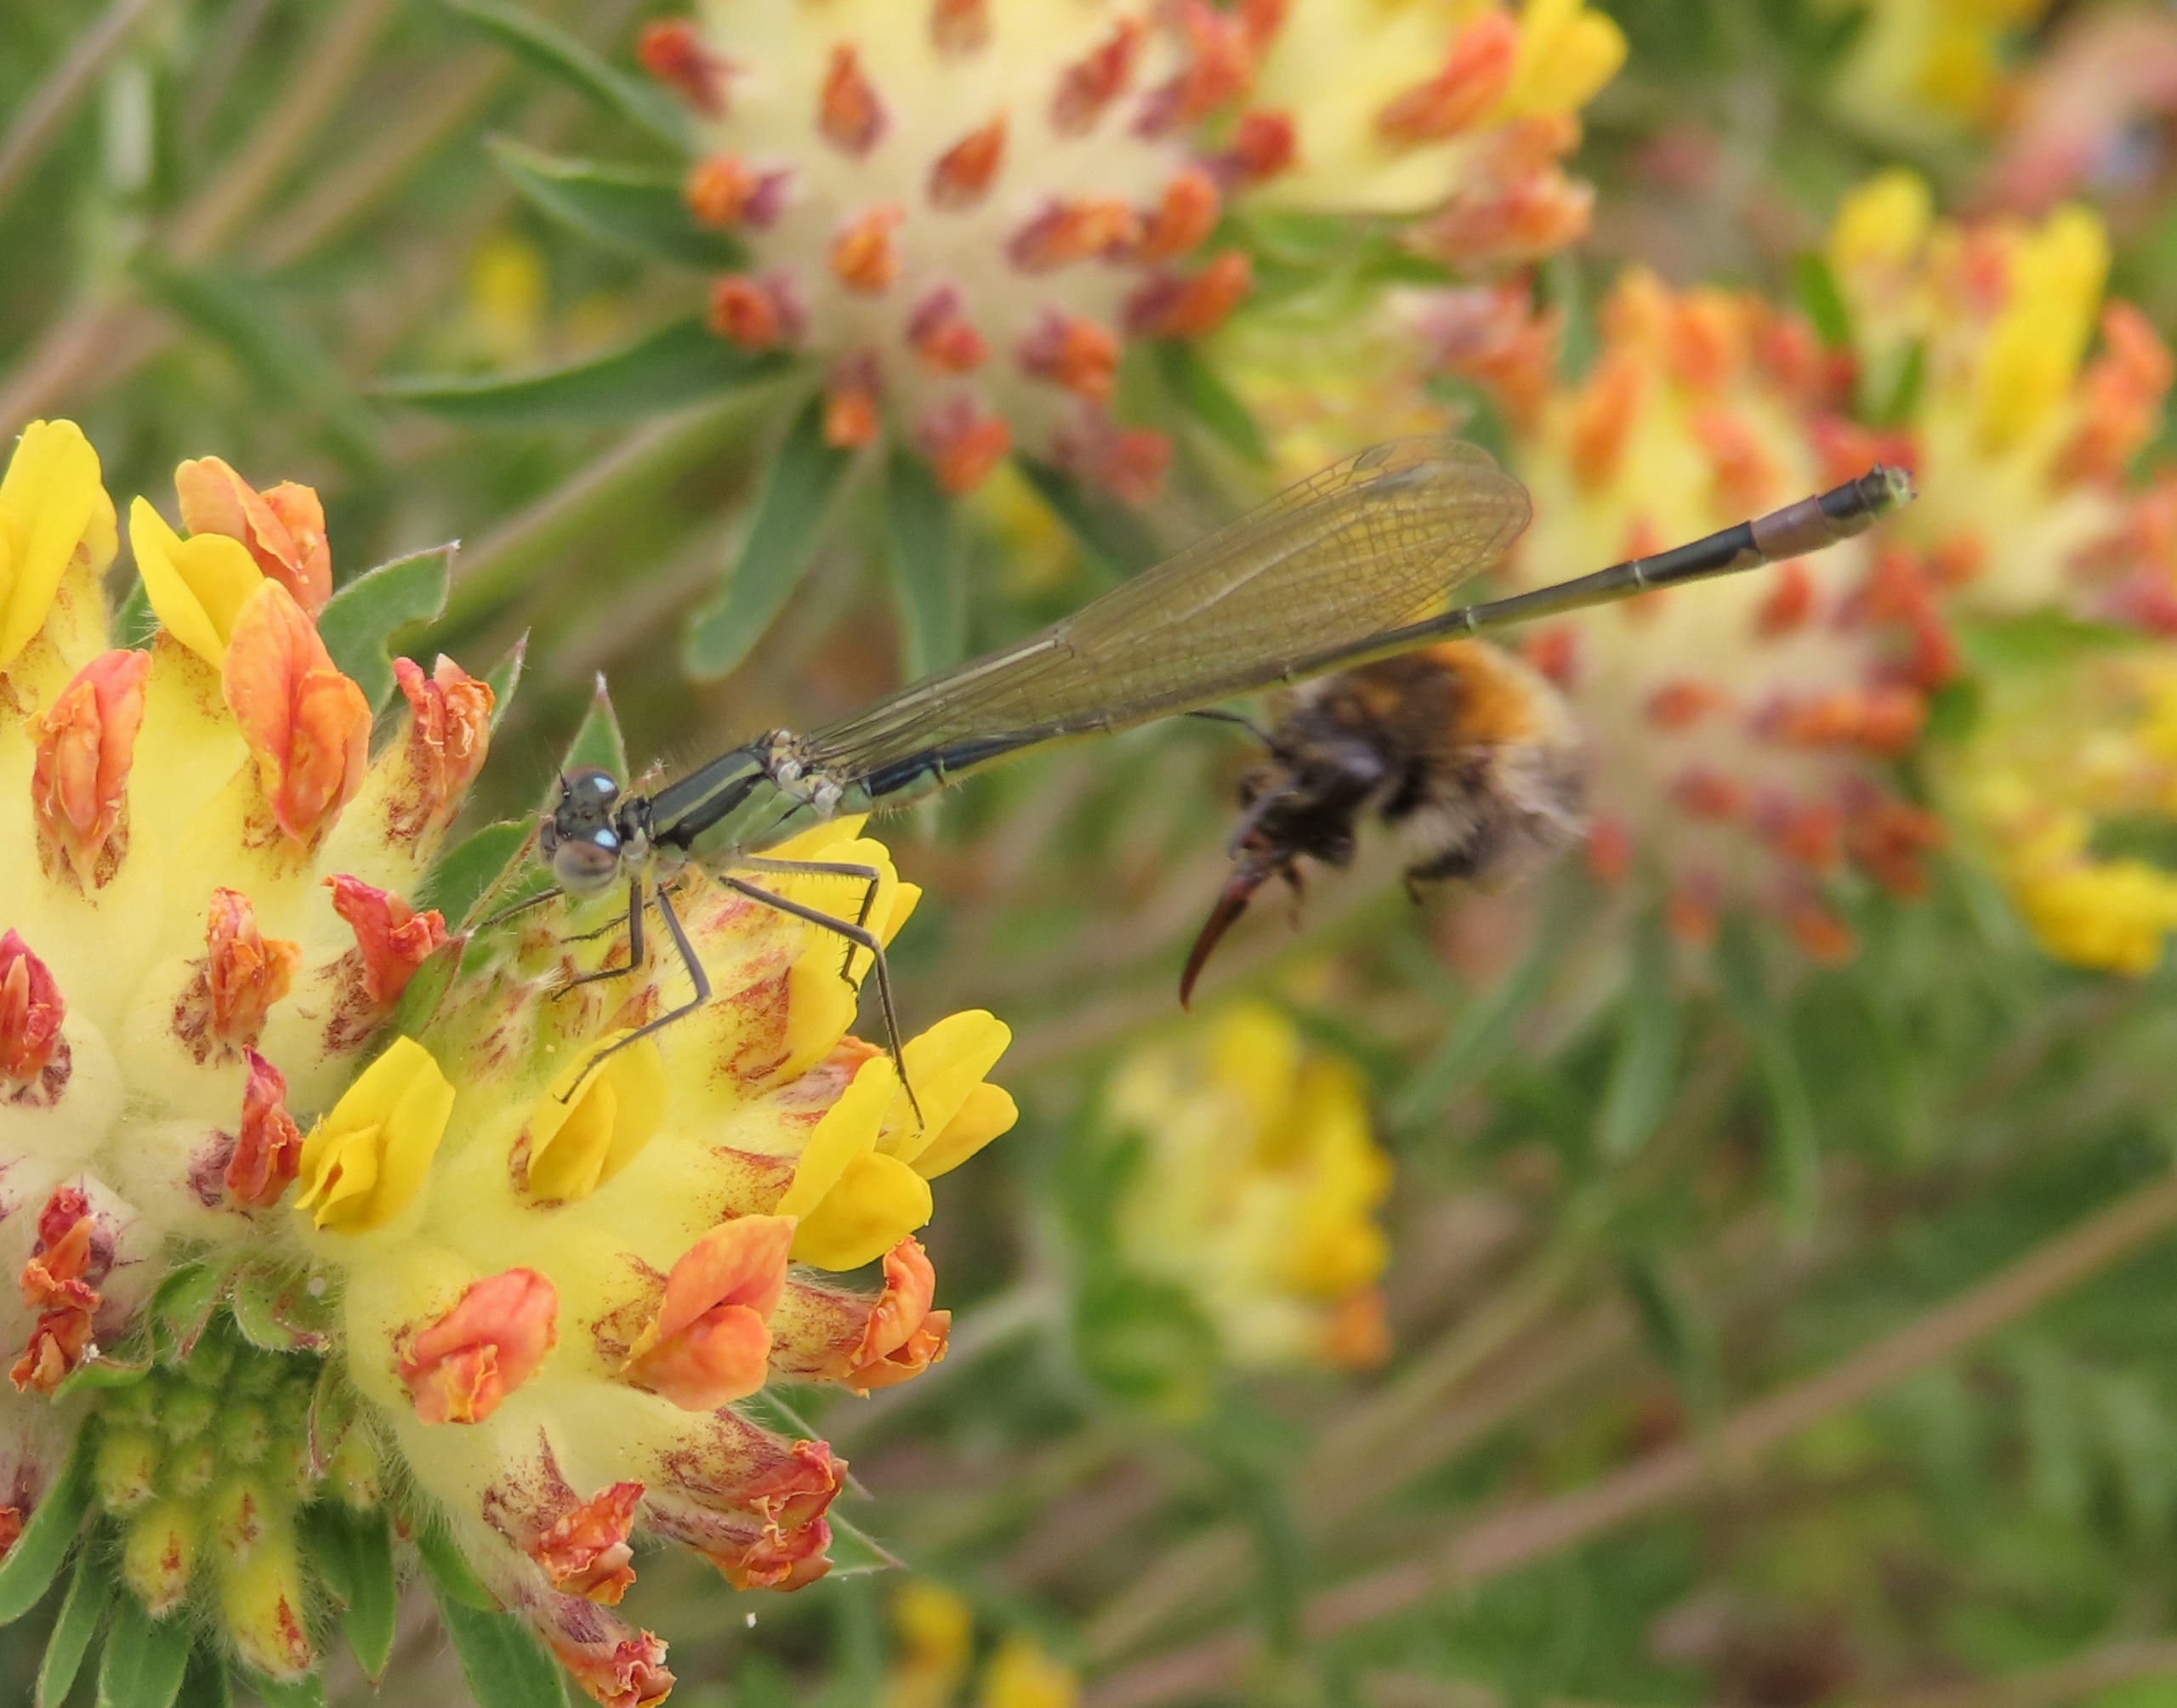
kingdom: Plantae
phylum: Tracheophyta
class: Magnoliopsida
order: Fabales
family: Fabaceae
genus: Anthyllis
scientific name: Anthyllis vulneraria
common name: Rundbælg
